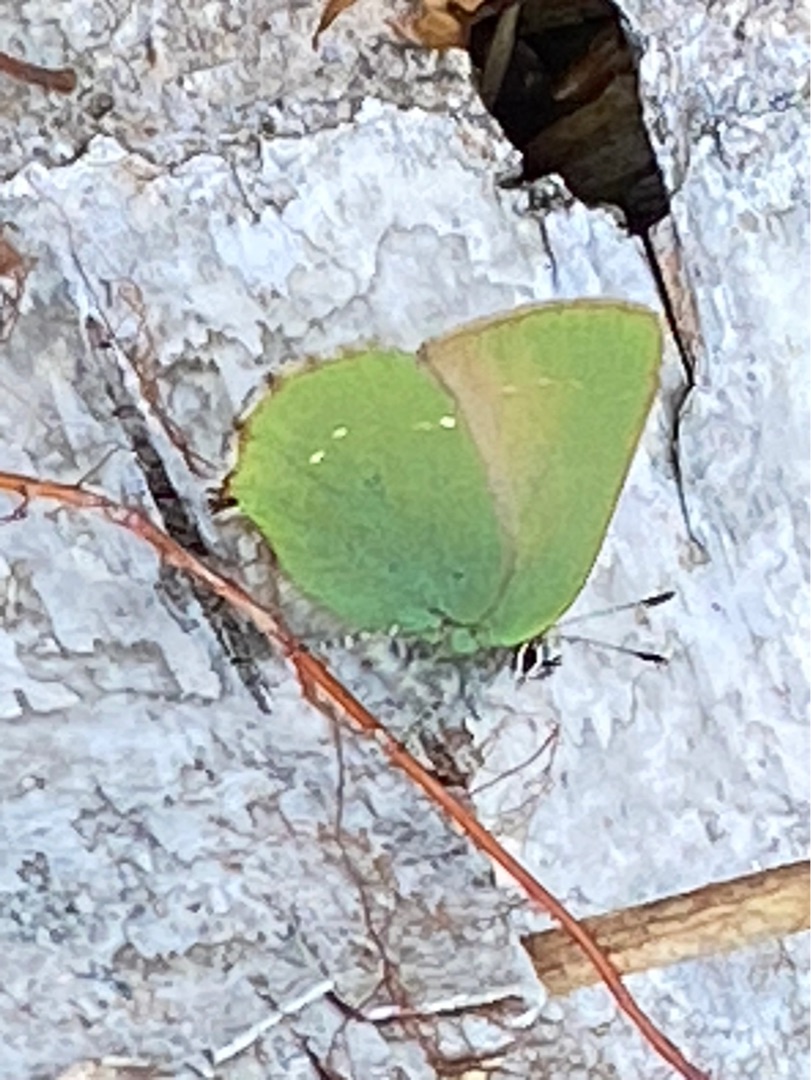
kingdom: Animalia
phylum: Arthropoda
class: Insecta
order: Lepidoptera
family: Lycaenidae
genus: Callophrys
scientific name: Callophrys rubi
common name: Grøn busksommerfugl
